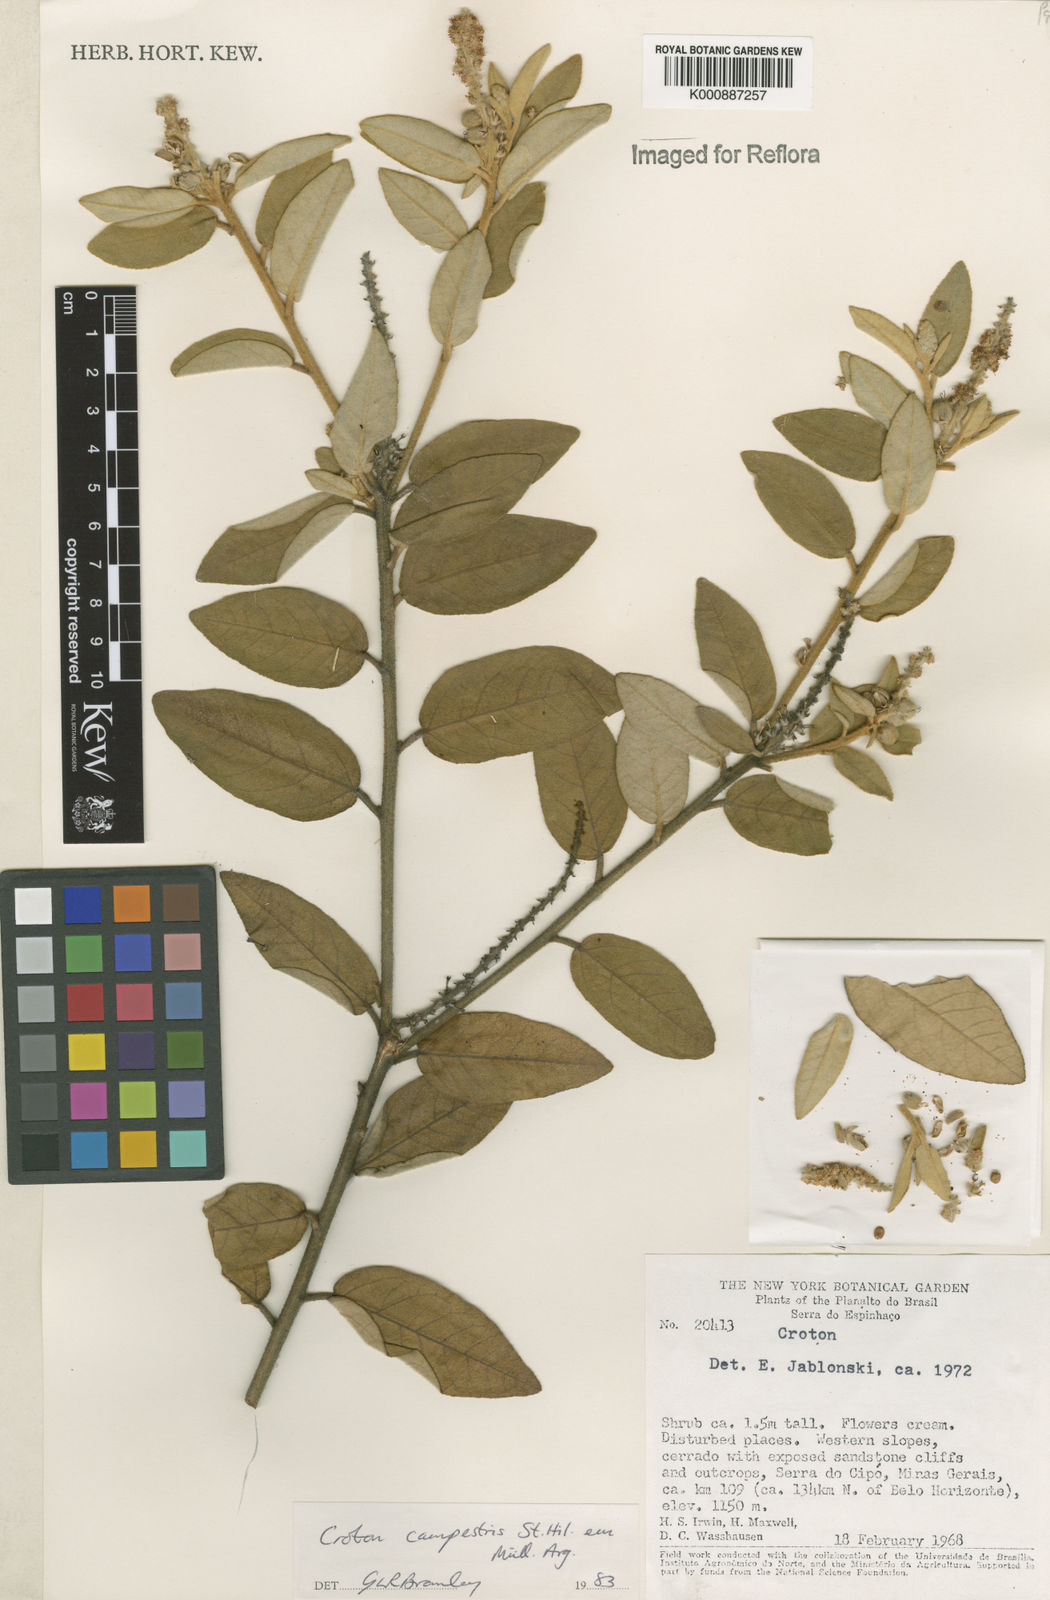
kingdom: Plantae
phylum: Tracheophyta
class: Magnoliopsida
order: Malpighiales
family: Euphorbiaceae
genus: Croton
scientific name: Croton campestris
